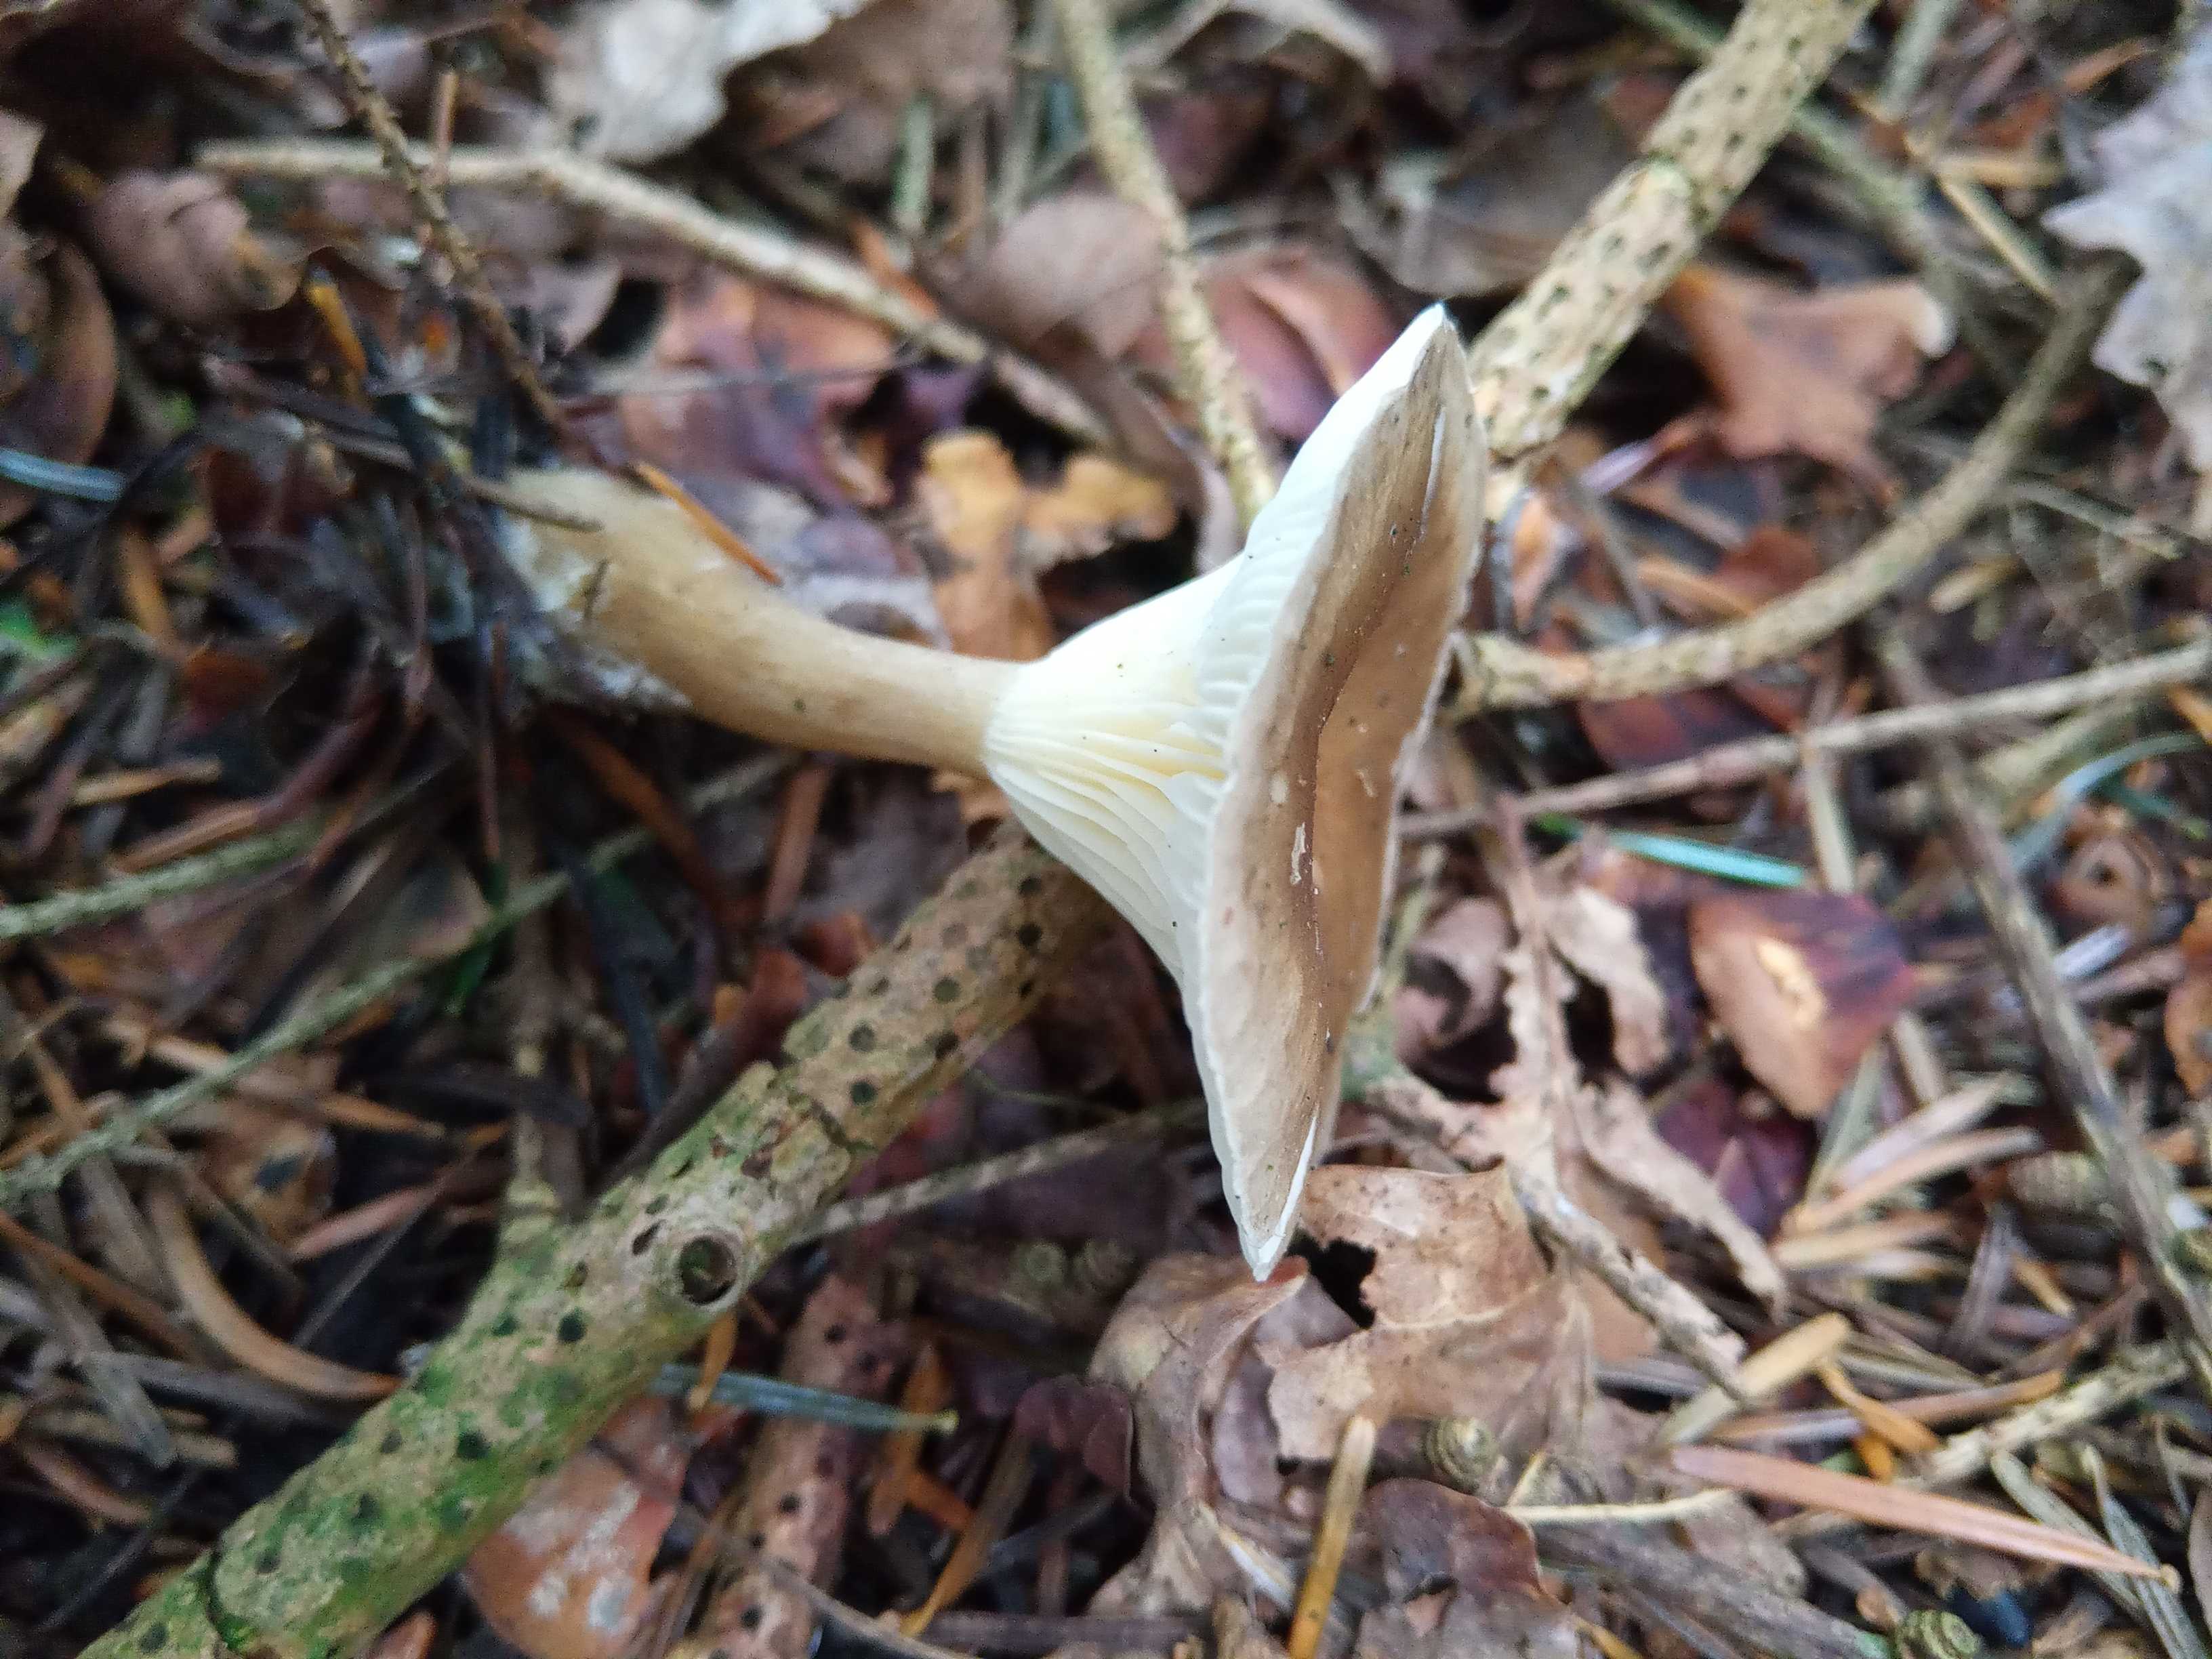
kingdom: Fungi
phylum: Basidiomycota
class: Agaricomycetes
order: Agaricales
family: Hygrophoraceae
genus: Ampulloclitocybe
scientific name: Ampulloclitocybe clavipes
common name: køllefod
